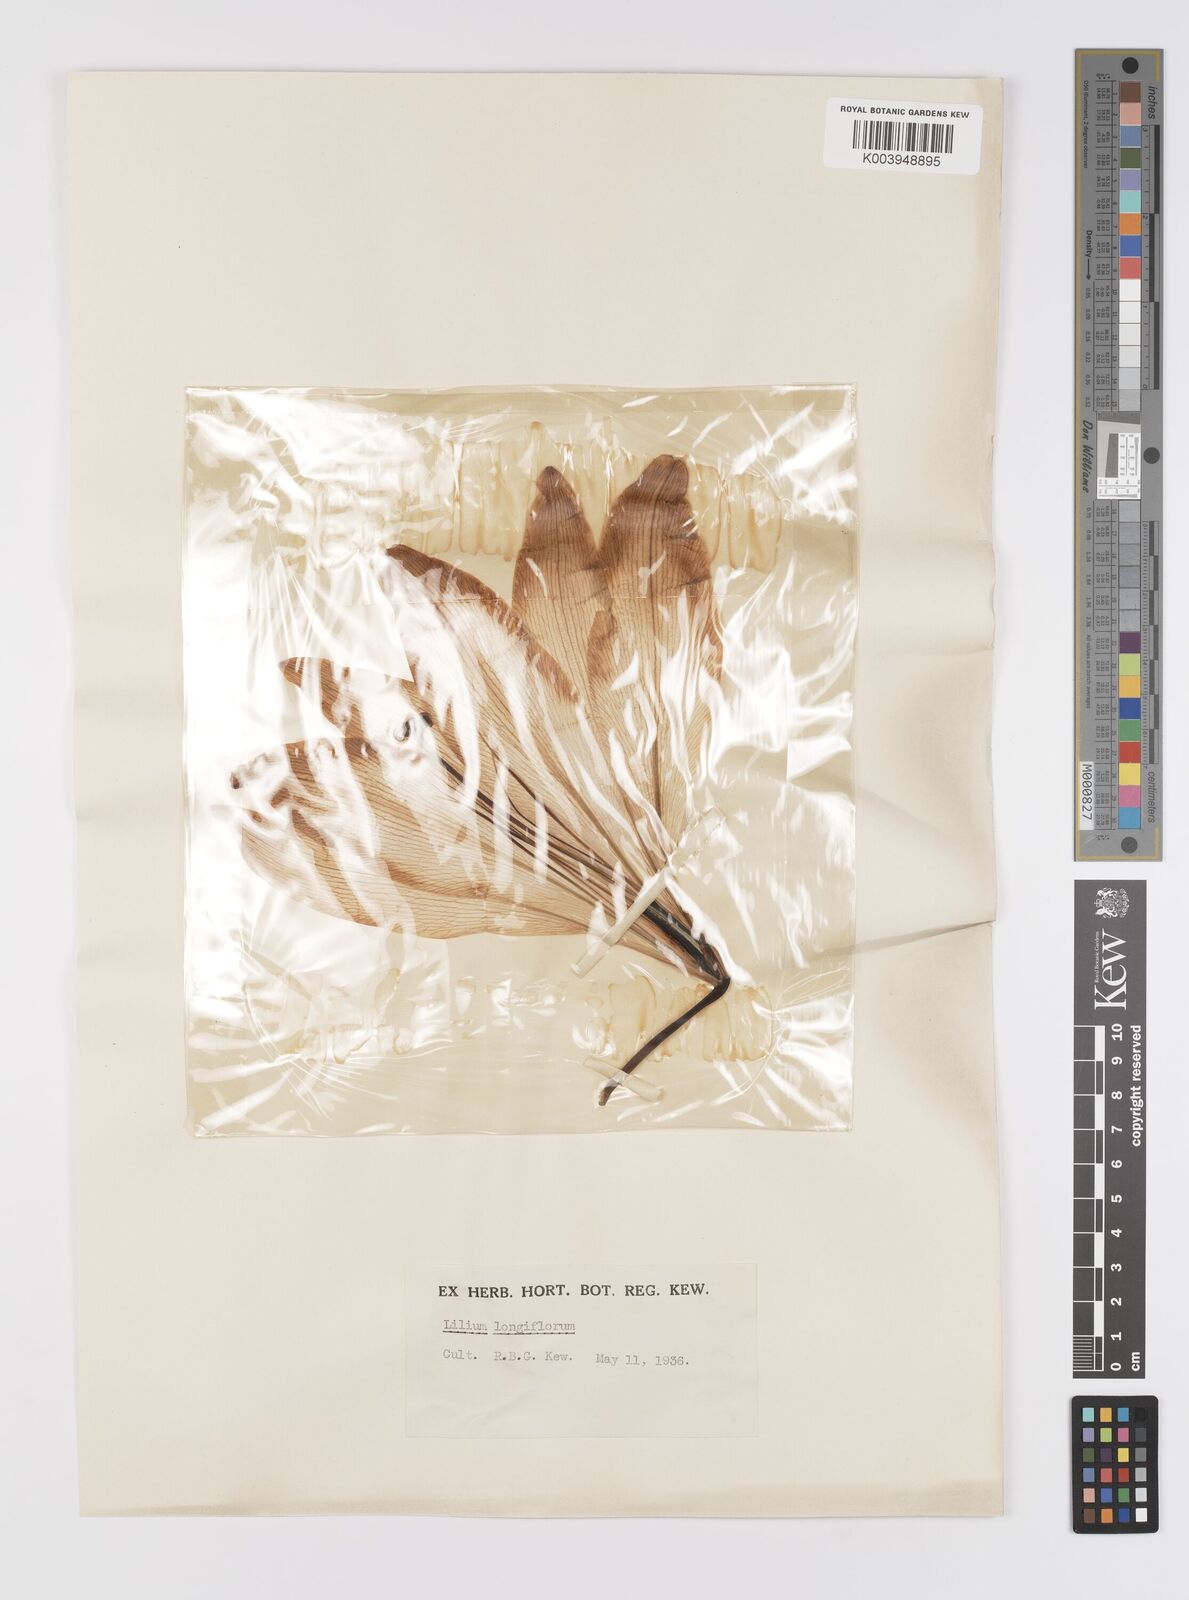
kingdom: Plantae
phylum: Tracheophyta
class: Liliopsida
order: Liliales
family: Liliaceae
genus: Lilium
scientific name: Lilium
